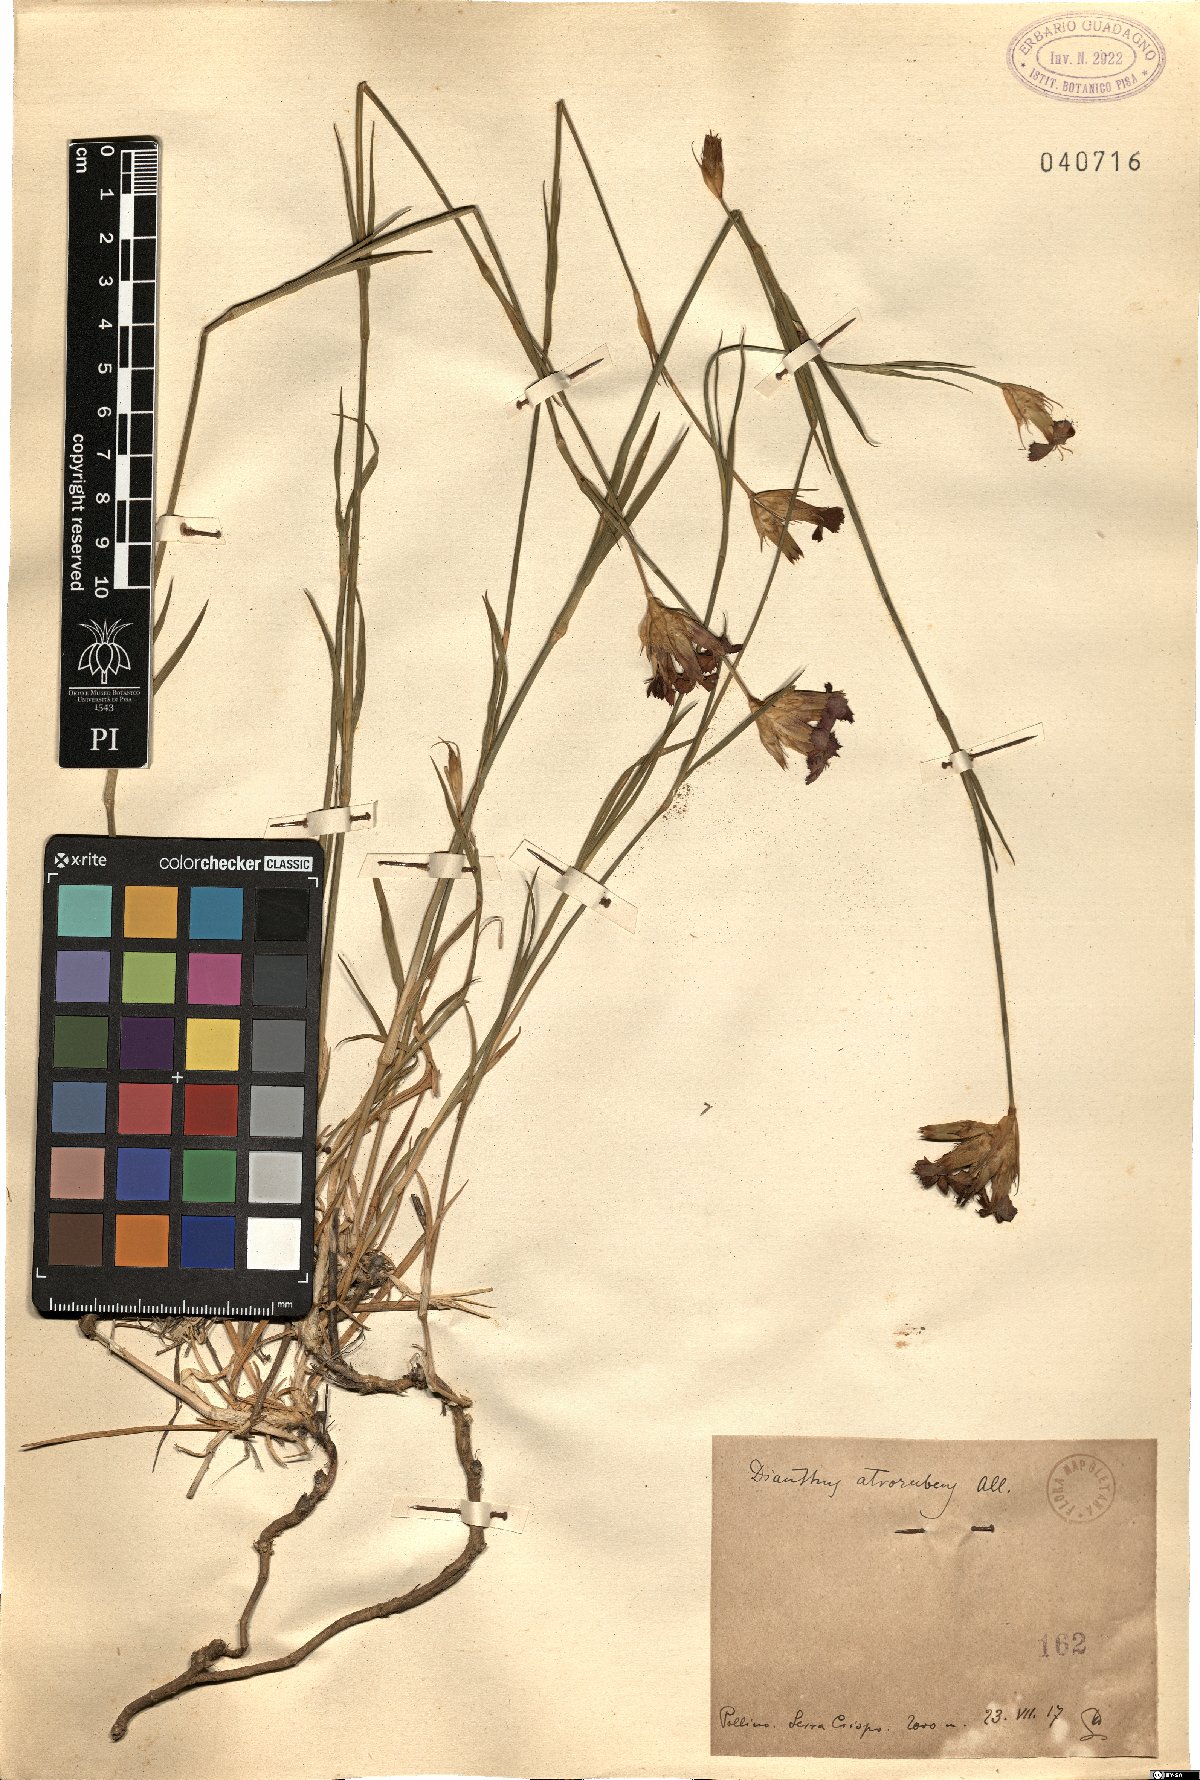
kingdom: Plantae
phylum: Tracheophyta
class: Magnoliopsida
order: Caryophyllales
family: Caryophyllaceae
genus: Dianthus
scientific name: Dianthus carthusianorum
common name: Carthusian pink
